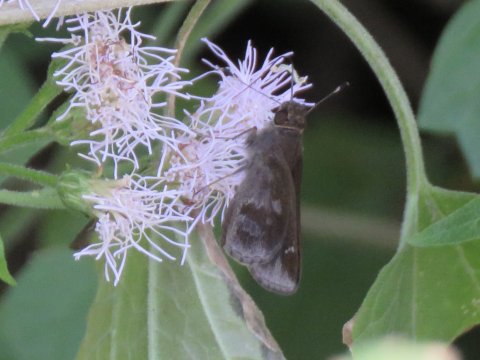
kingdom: Animalia
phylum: Arthropoda
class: Insecta
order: Lepidoptera
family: Hesperiidae
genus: Cymaenes
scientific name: Cymaenes odilia
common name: Fawn-spotted Skipper
